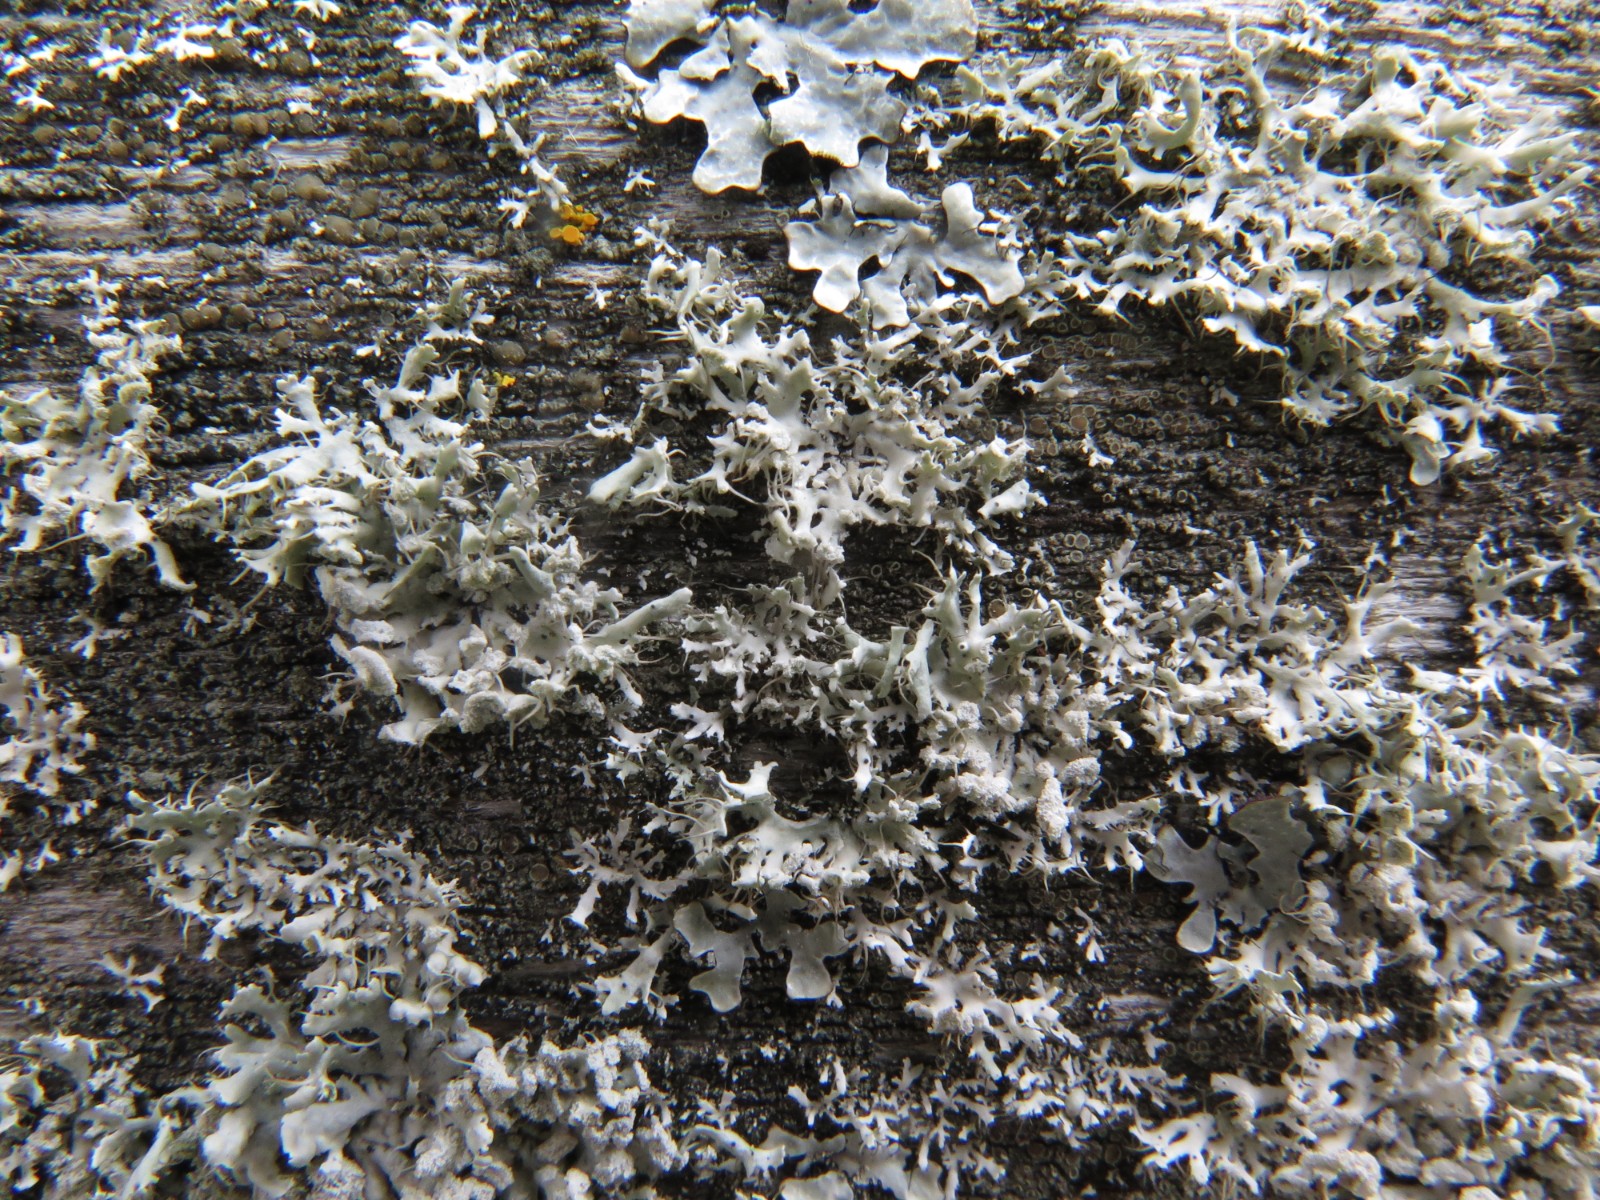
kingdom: Fungi
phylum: Ascomycota
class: Lecanoromycetes
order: Caliciales
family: Physciaceae
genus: Physcia
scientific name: Physcia tenella
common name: spæd rosetlav
